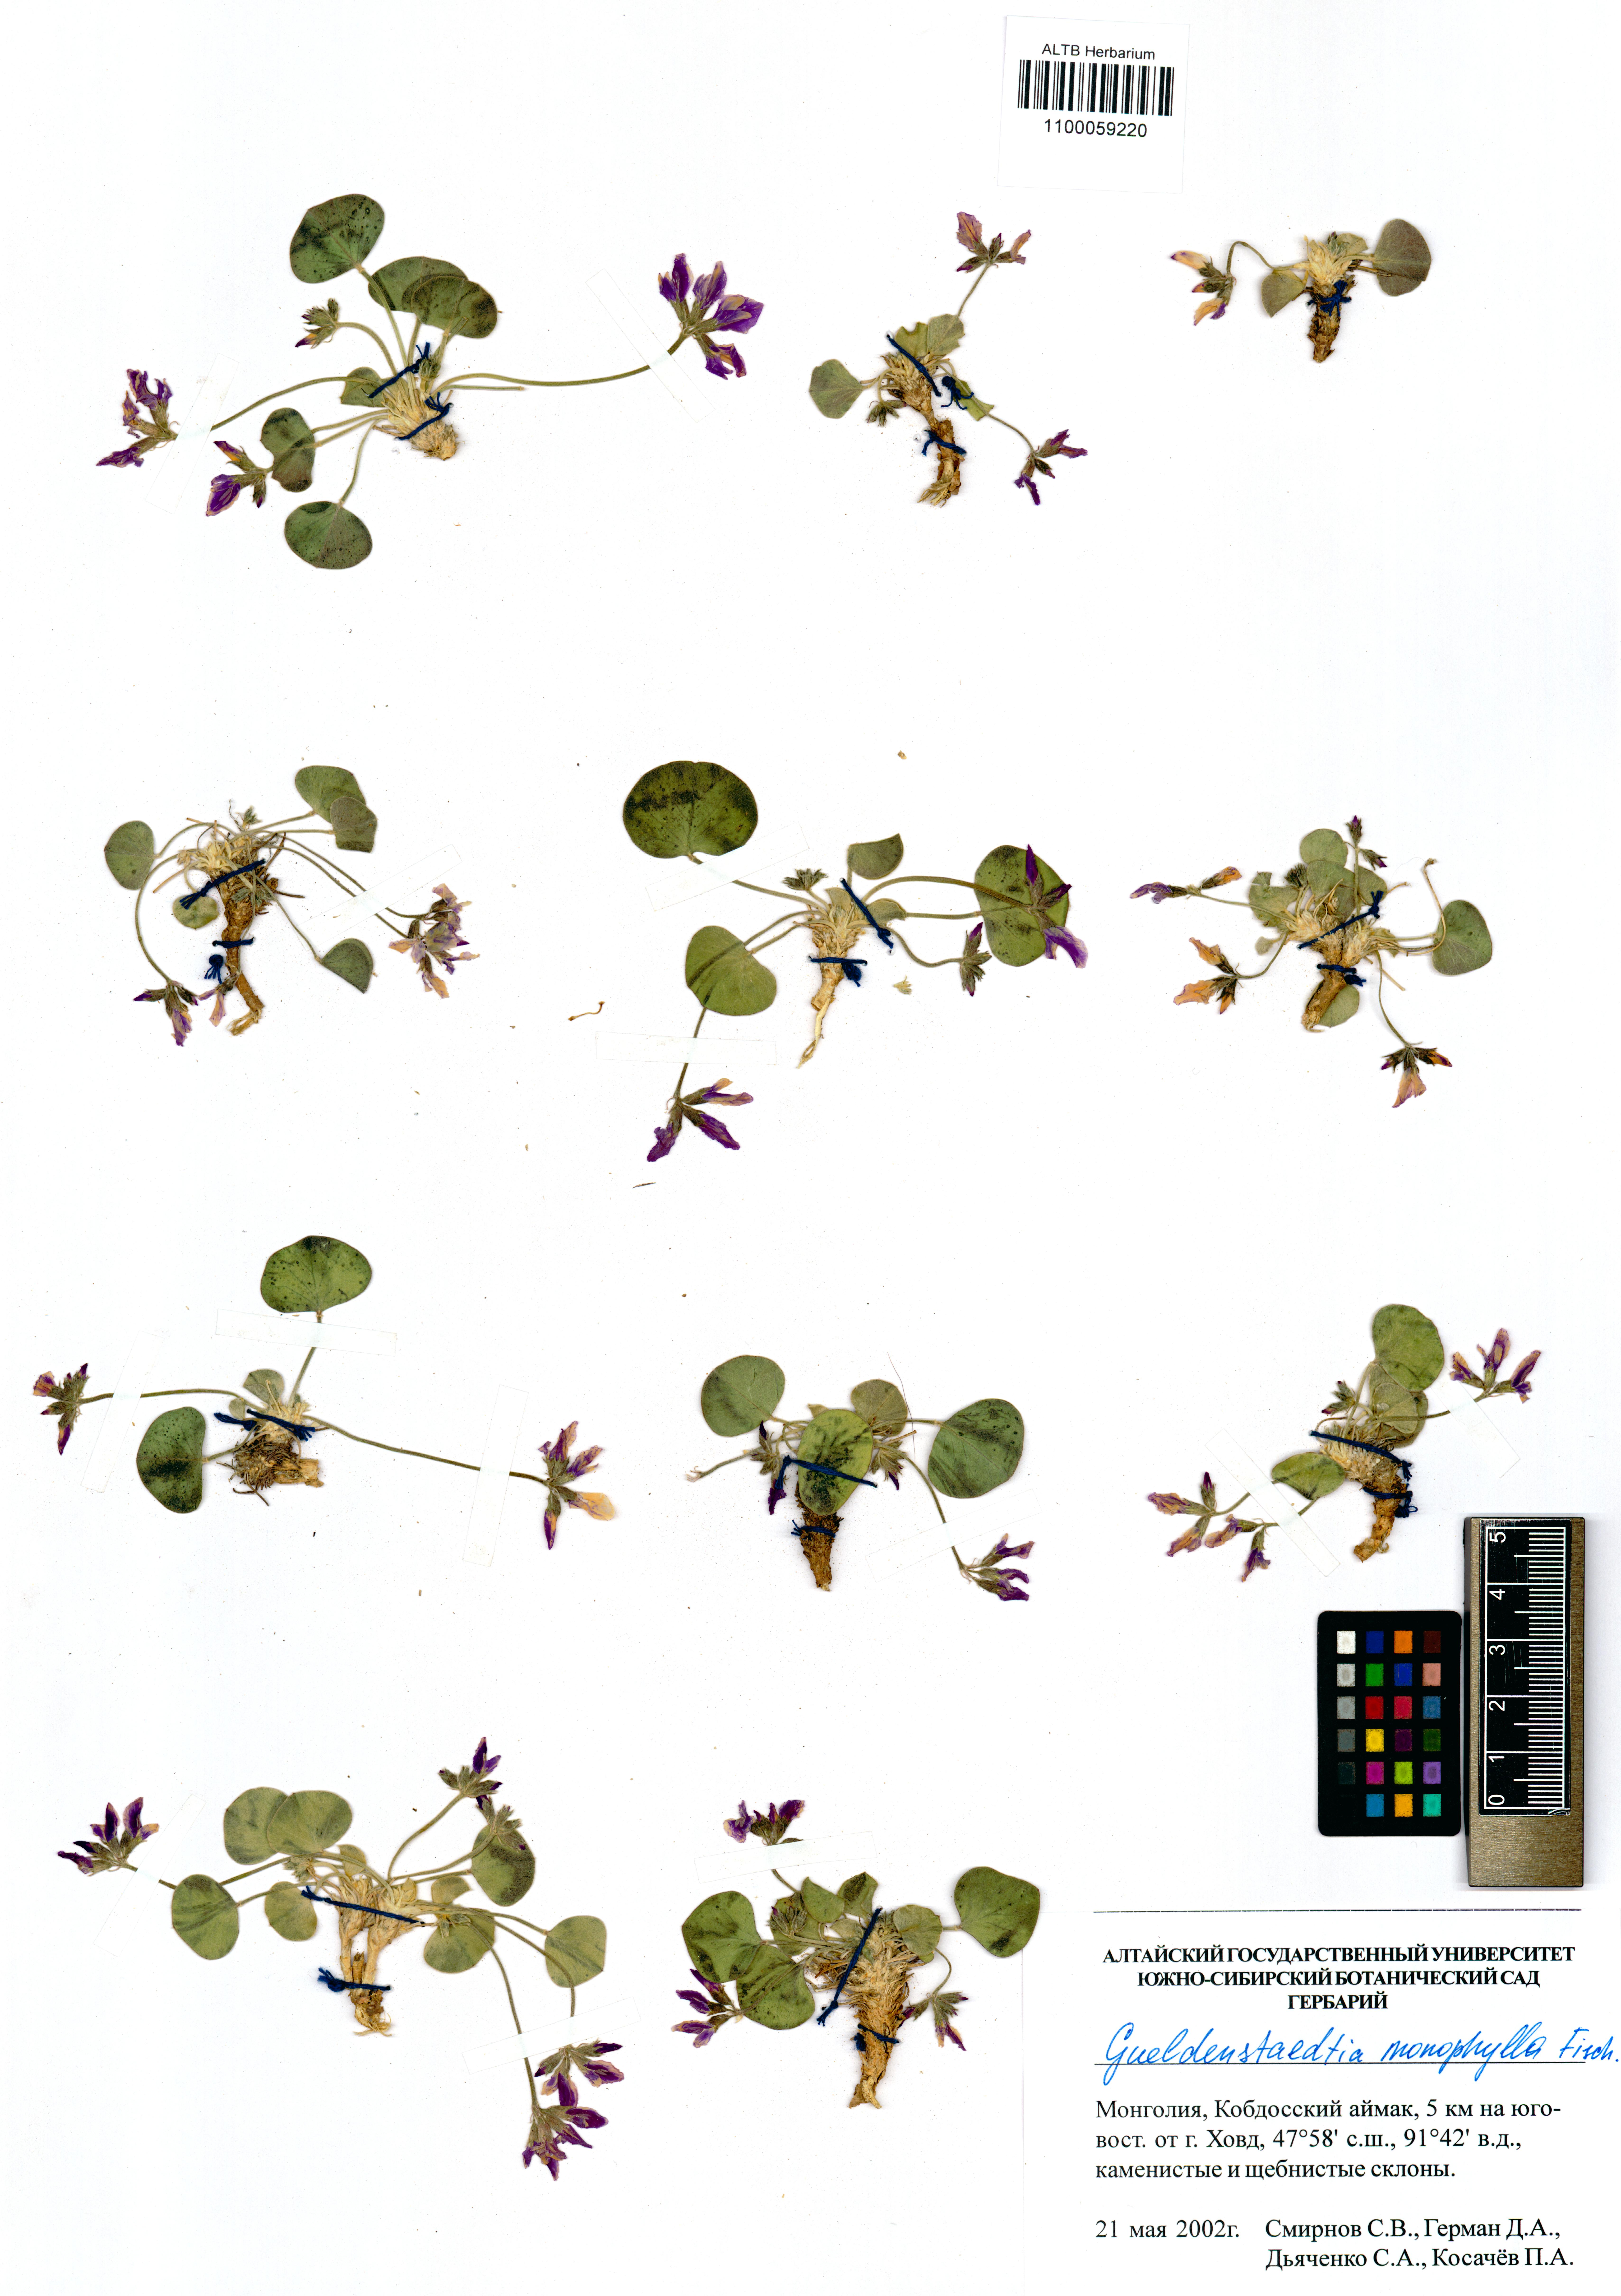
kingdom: Plantae
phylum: Tracheophyta
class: Magnoliopsida
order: Fabales
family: Fabaceae
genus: Gueldenstaedtia
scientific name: Gueldenstaedtia monophylla
